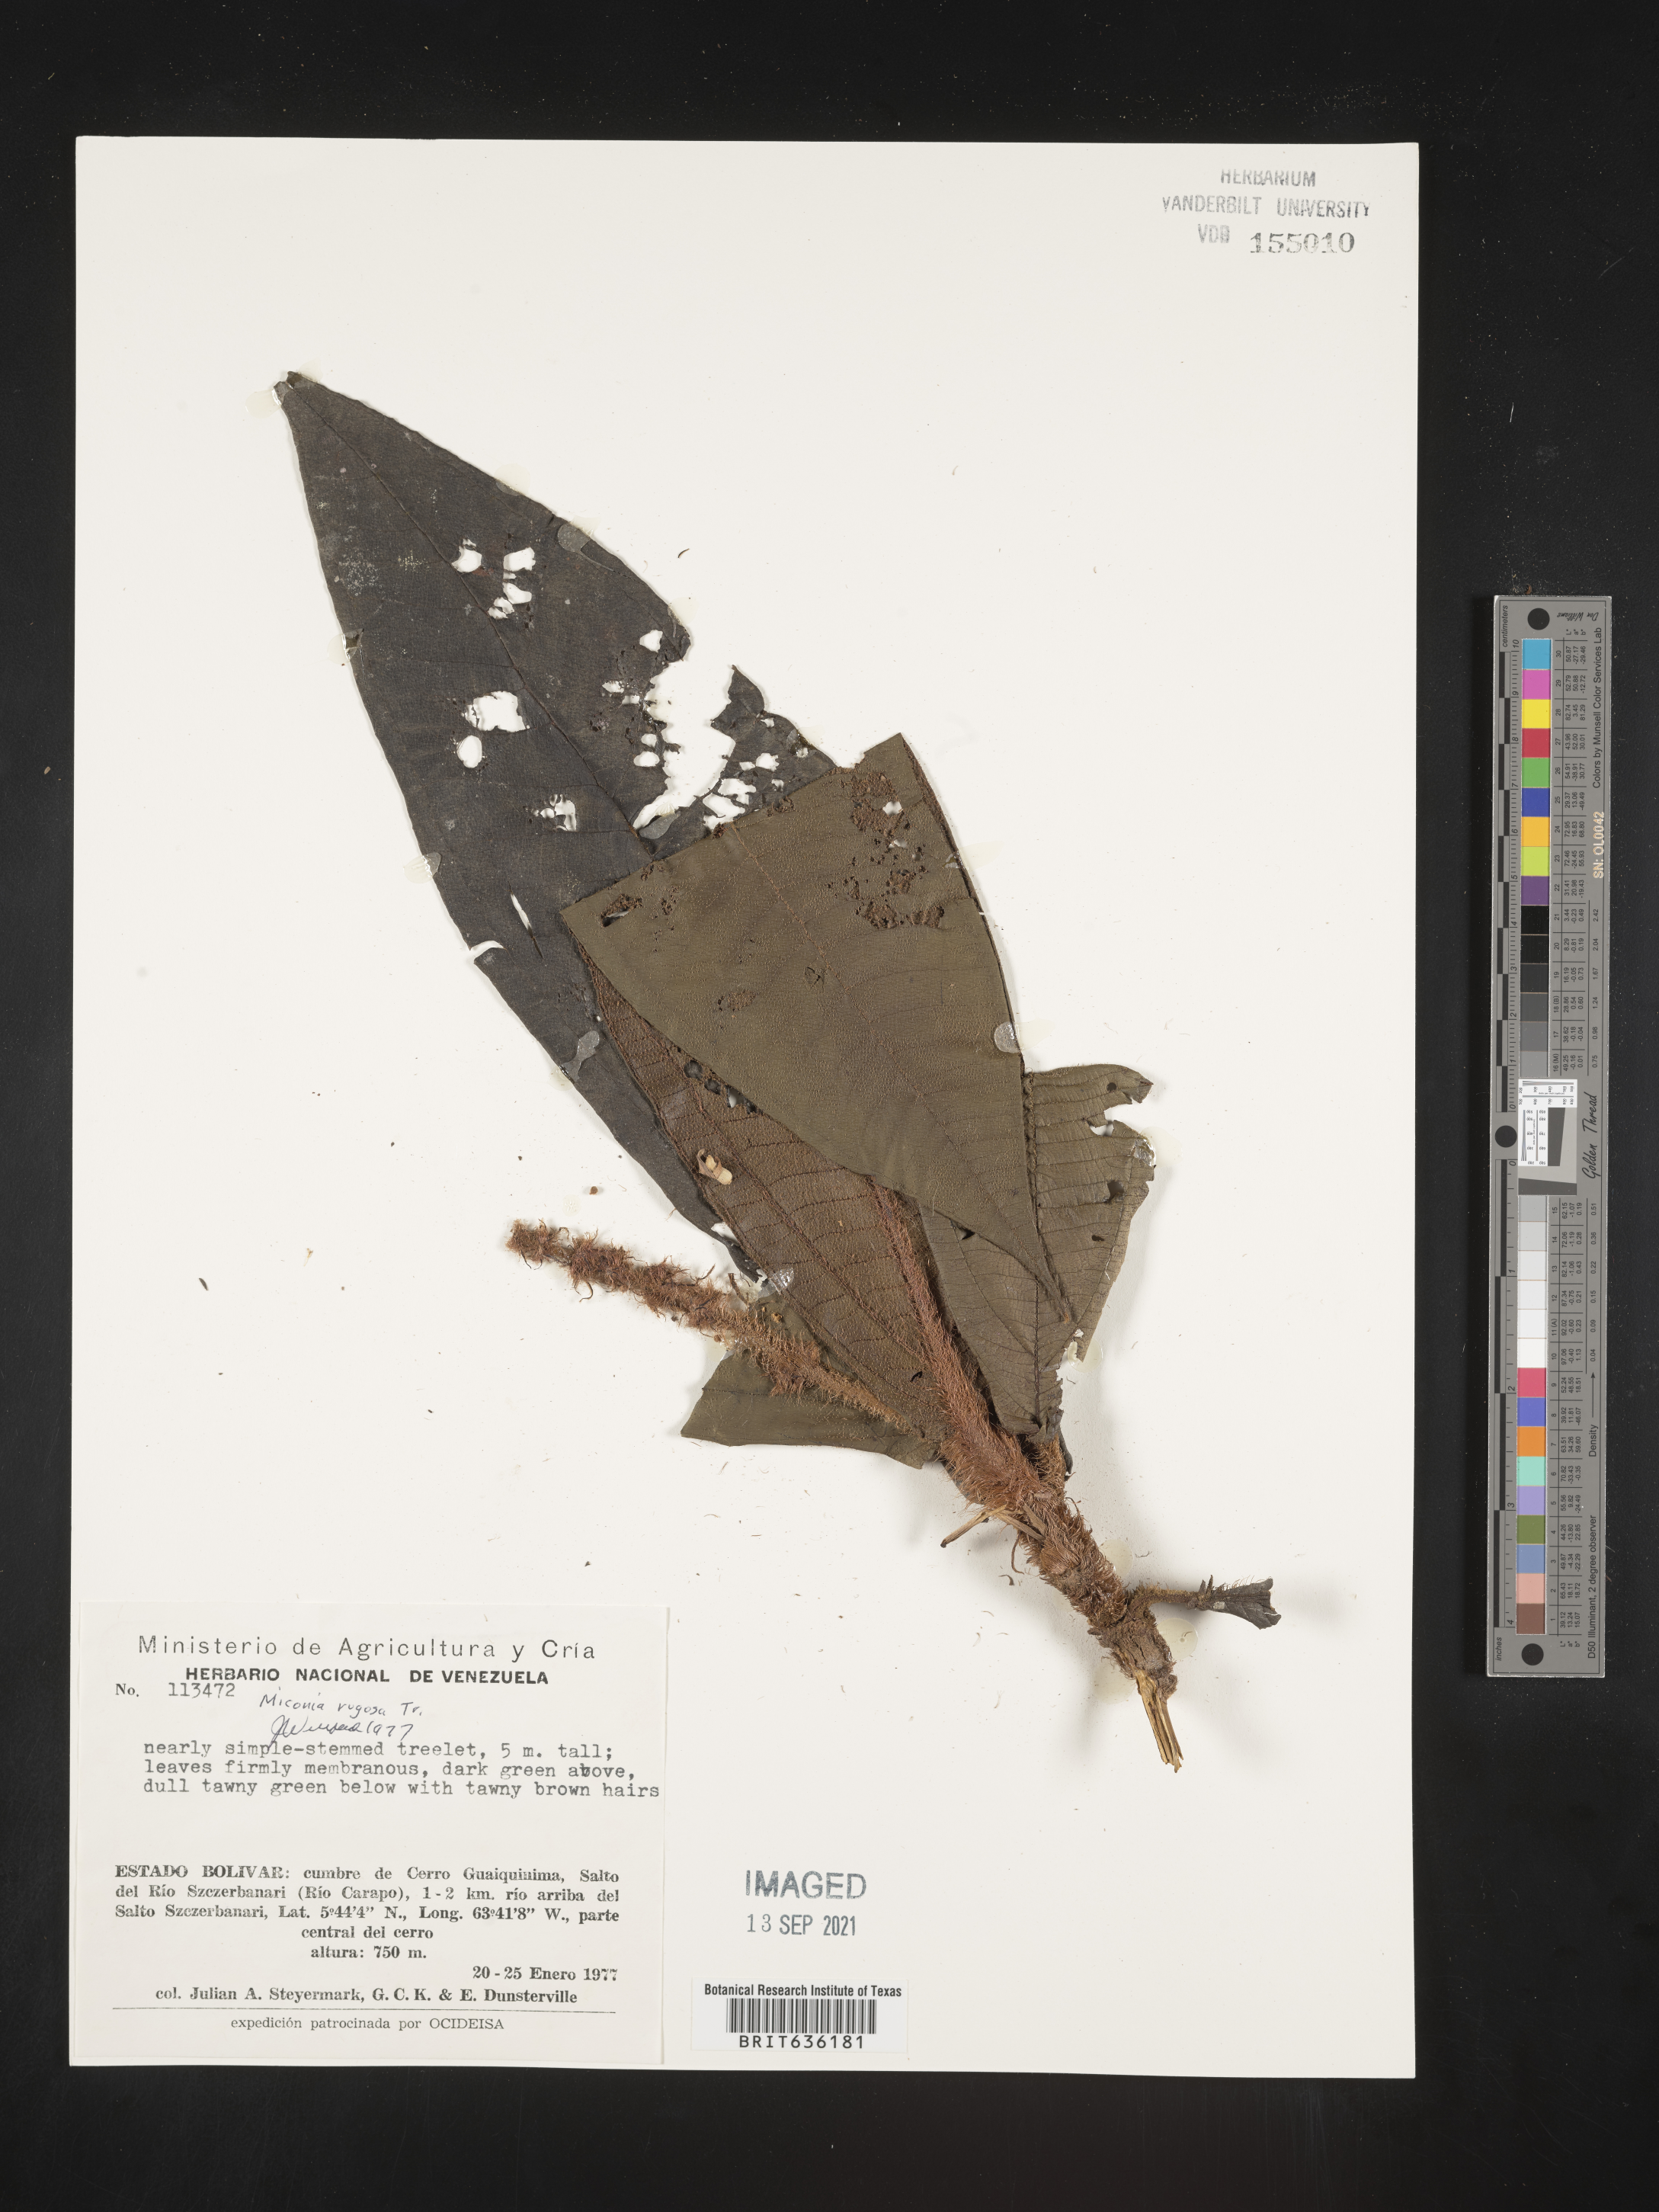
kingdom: Plantae
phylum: Tracheophyta
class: Magnoliopsida
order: Myrtales
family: Melastomataceae
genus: Miconia
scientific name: Miconia
